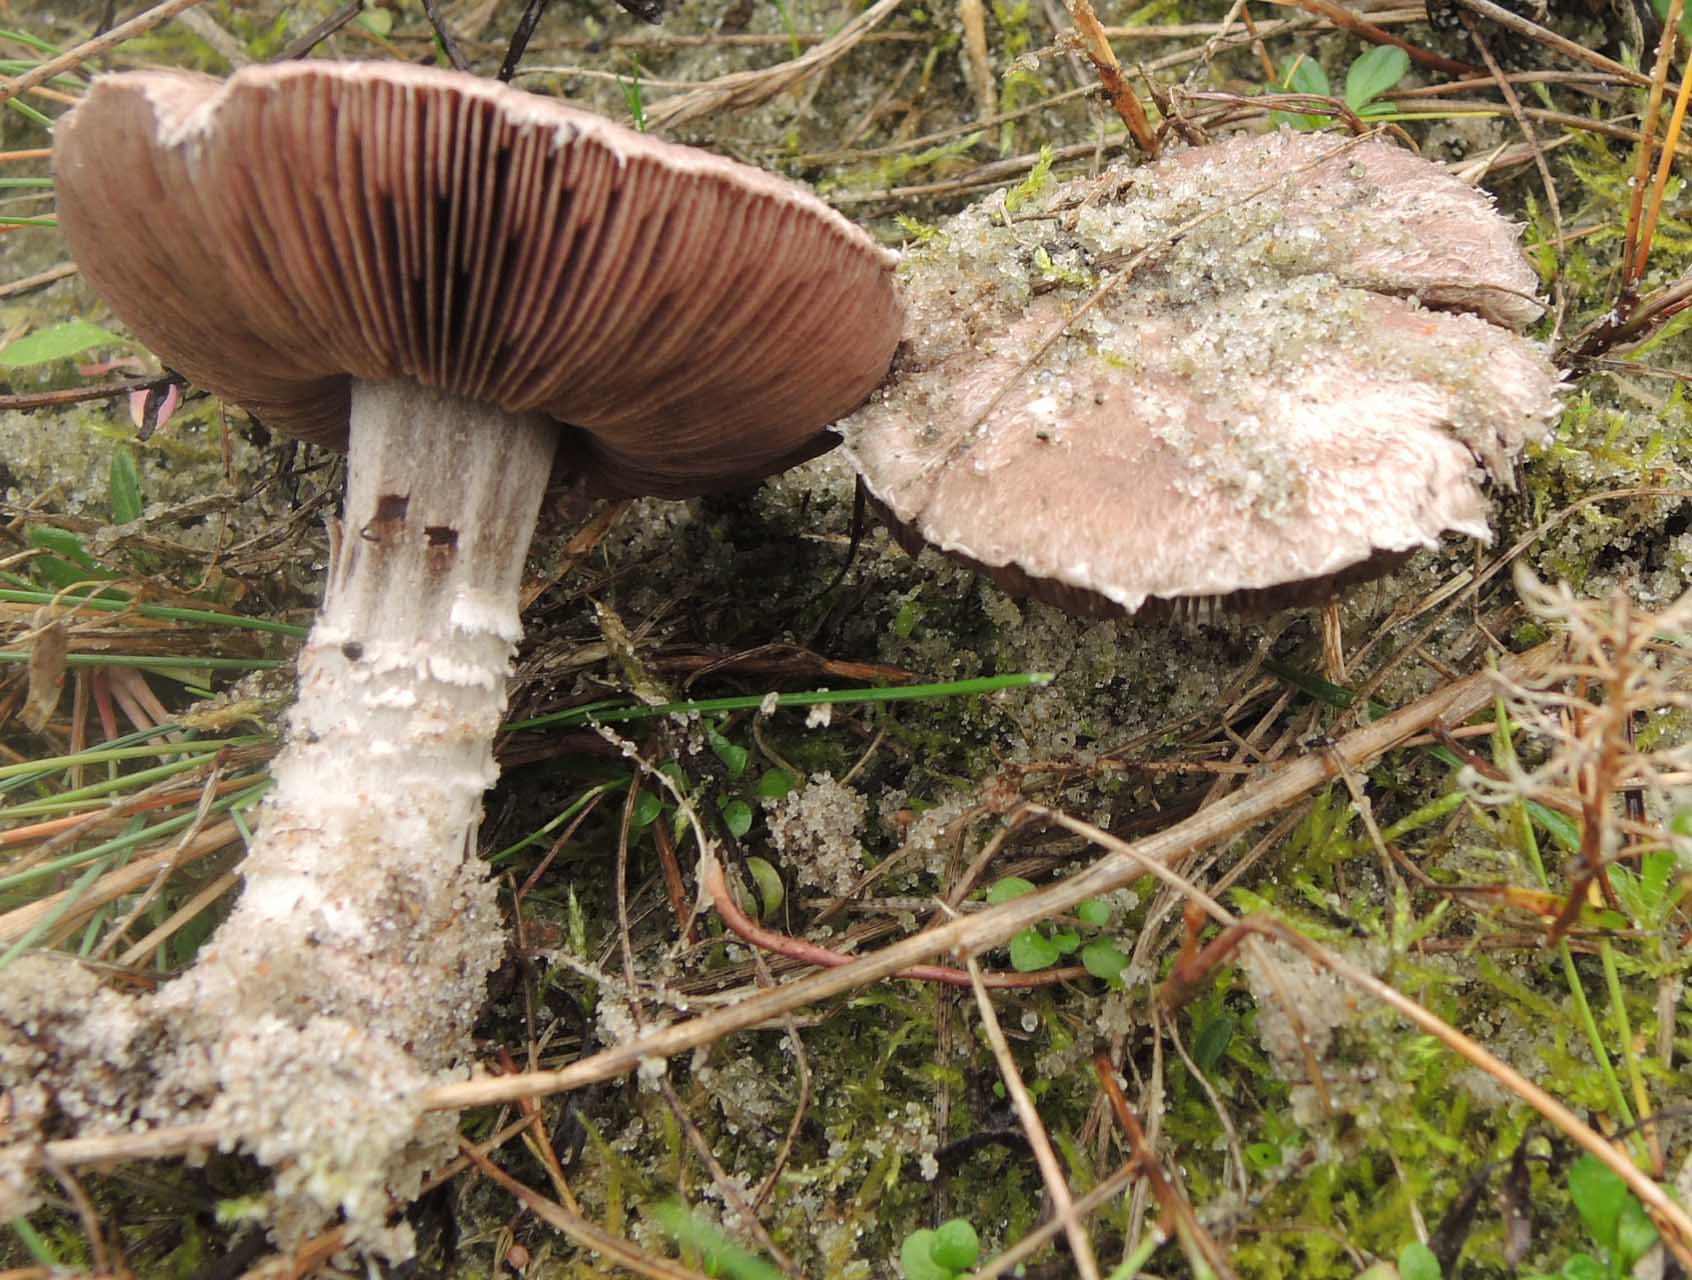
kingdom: Fungi
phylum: Basidiomycota
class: Agaricomycetes
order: Agaricales
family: Agaricaceae
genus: Agaricus
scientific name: Agaricus cupreobrunneus
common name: kobberbrun champignon
